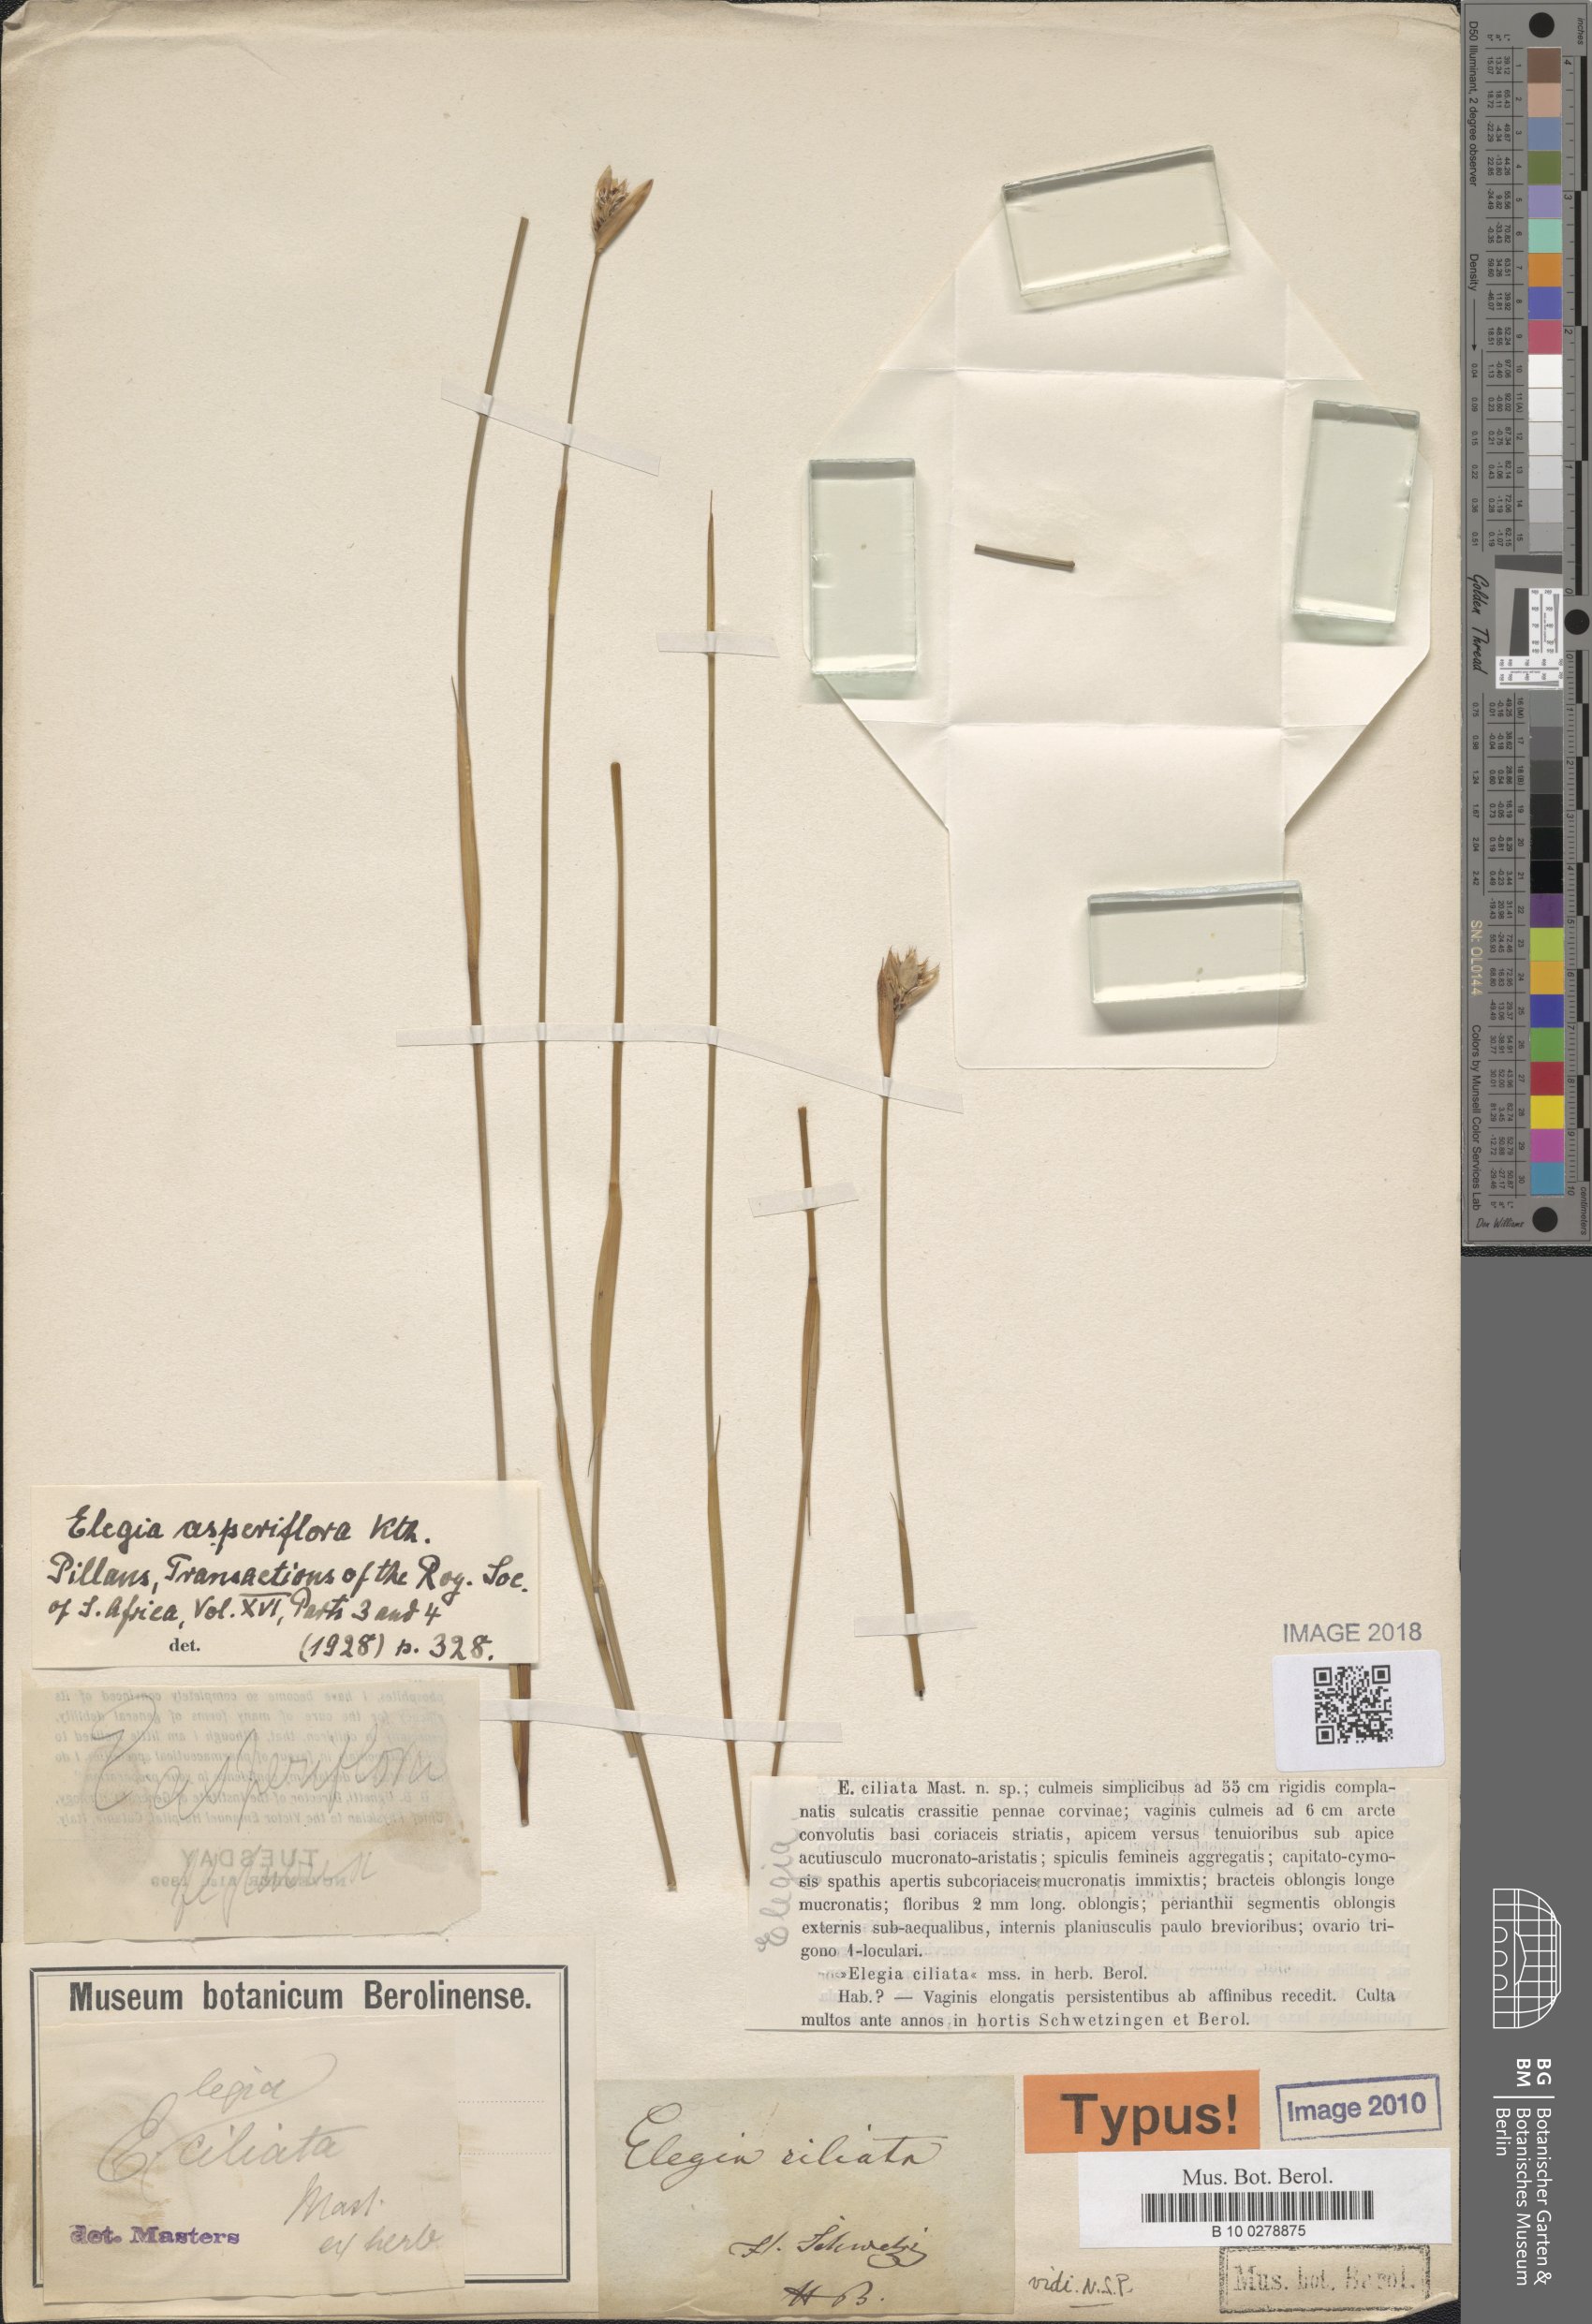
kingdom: Plantae
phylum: Tracheophyta
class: Liliopsida
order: Poales
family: Restionaceae
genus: Elegia
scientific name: Elegia asperiflora
